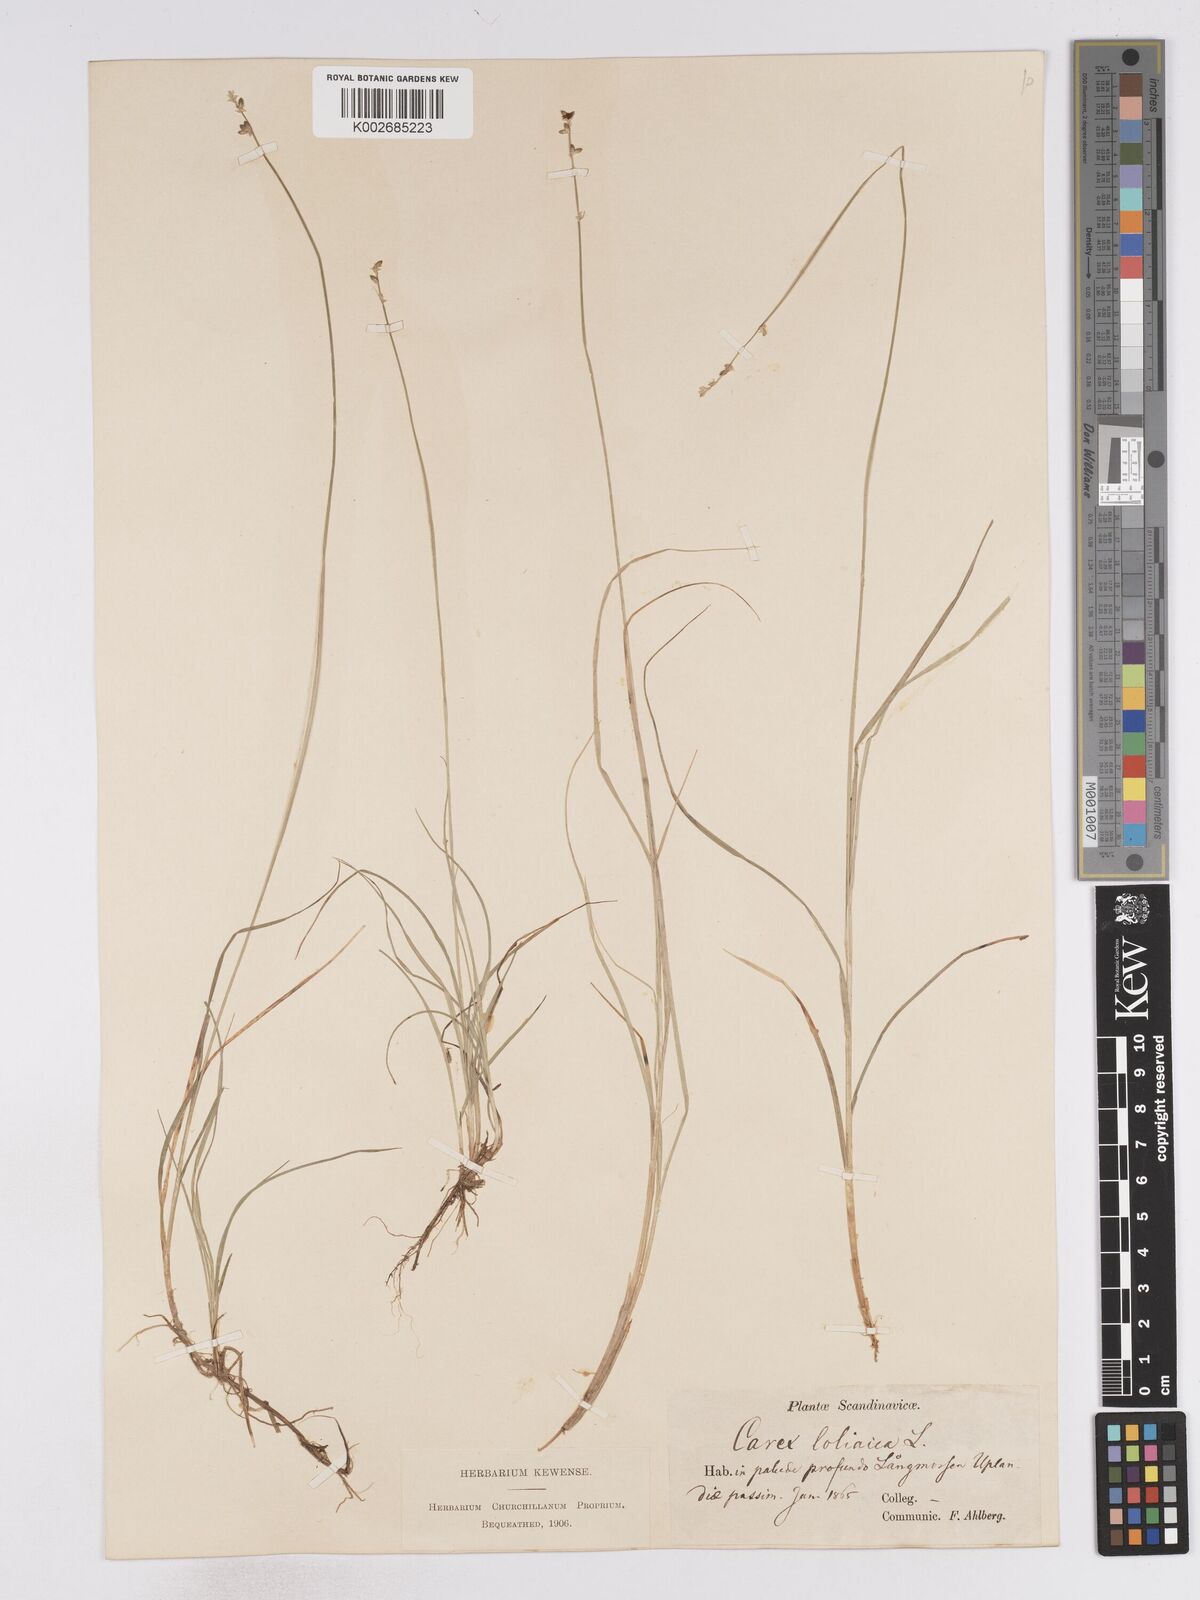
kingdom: Plantae
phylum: Tracheophyta
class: Liliopsida
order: Poales
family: Cyperaceae
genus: Carex
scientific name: Carex loliacea
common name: Ryegrass sedge
